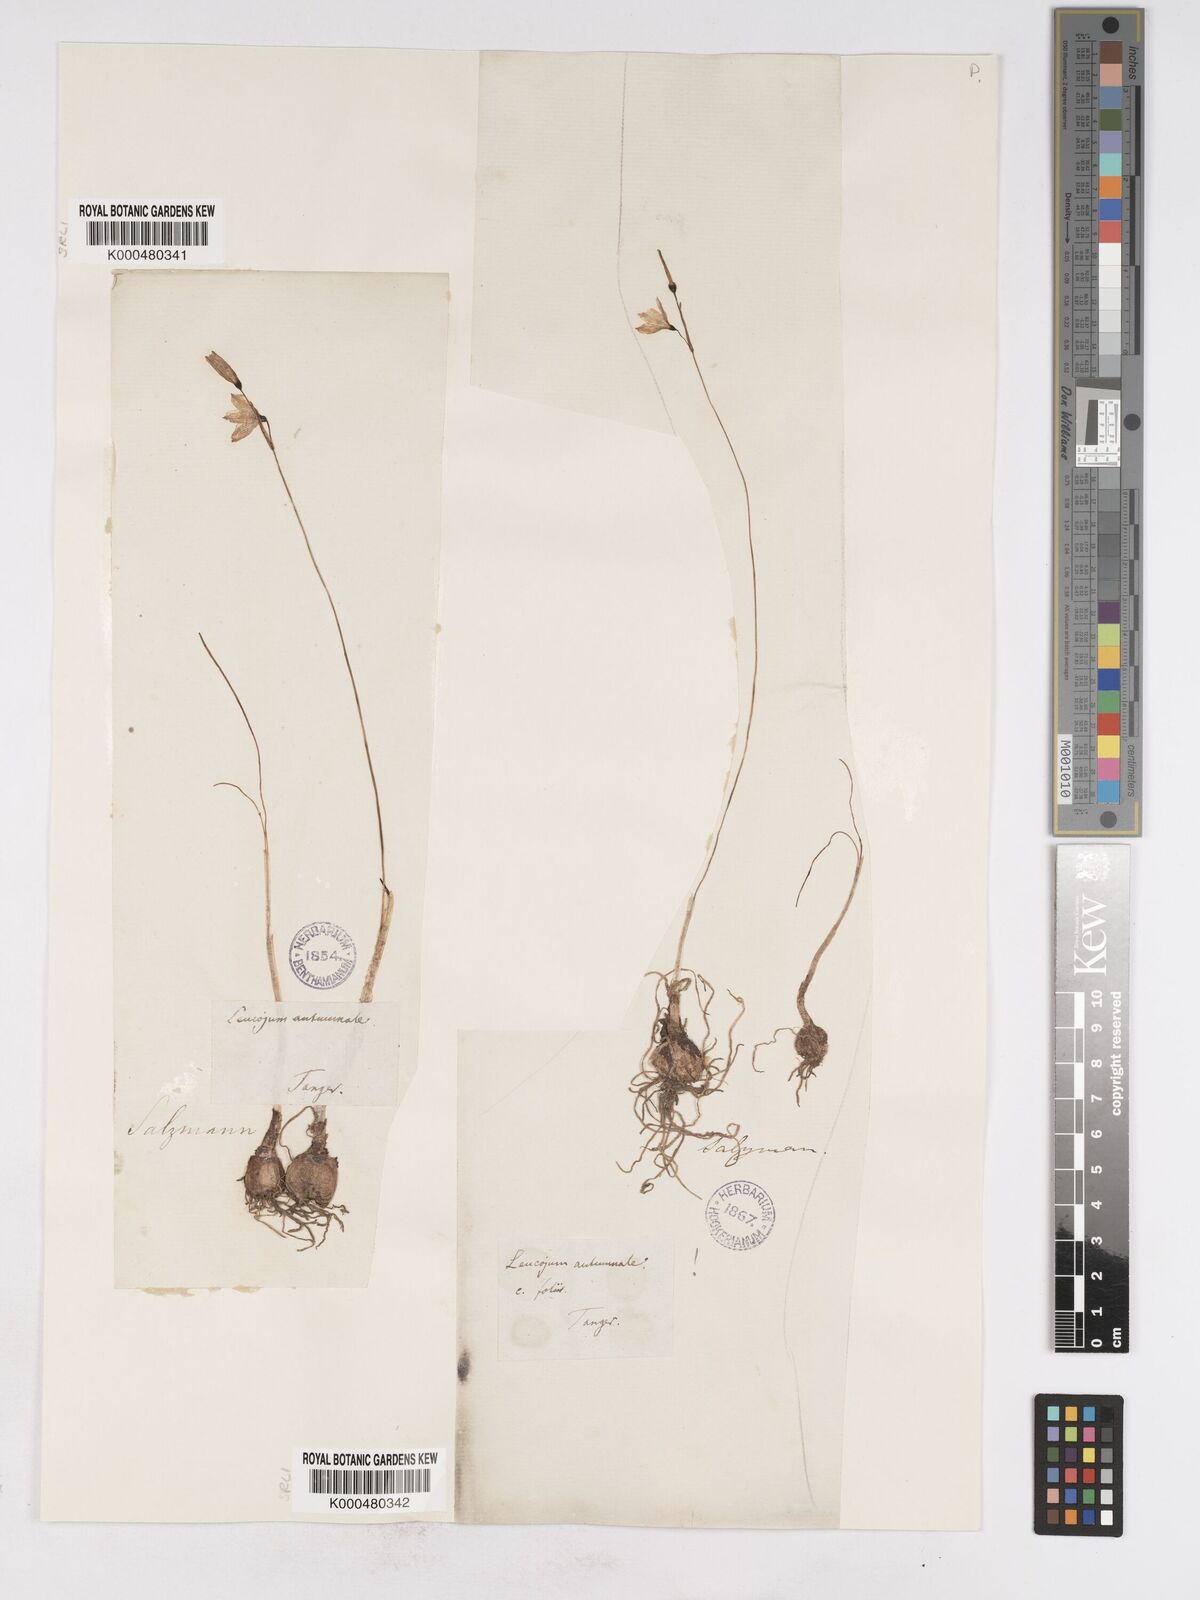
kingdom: Plantae
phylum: Tracheophyta
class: Liliopsida
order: Asparagales
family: Amaryllidaceae
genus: Acis
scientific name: Acis autumnalis
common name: Autumn snowflake
